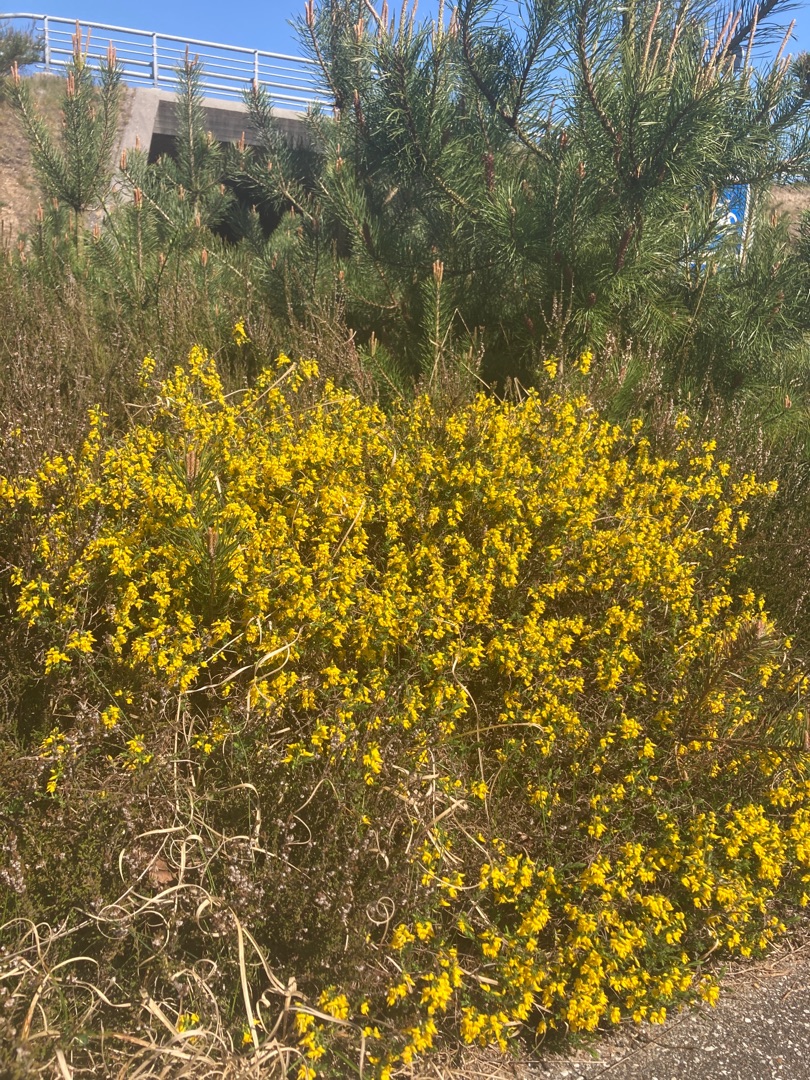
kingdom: Plantae
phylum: Tracheophyta
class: Magnoliopsida
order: Fabales
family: Fabaceae
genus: Genista
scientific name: Genista anglica
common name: Engelsk visse
